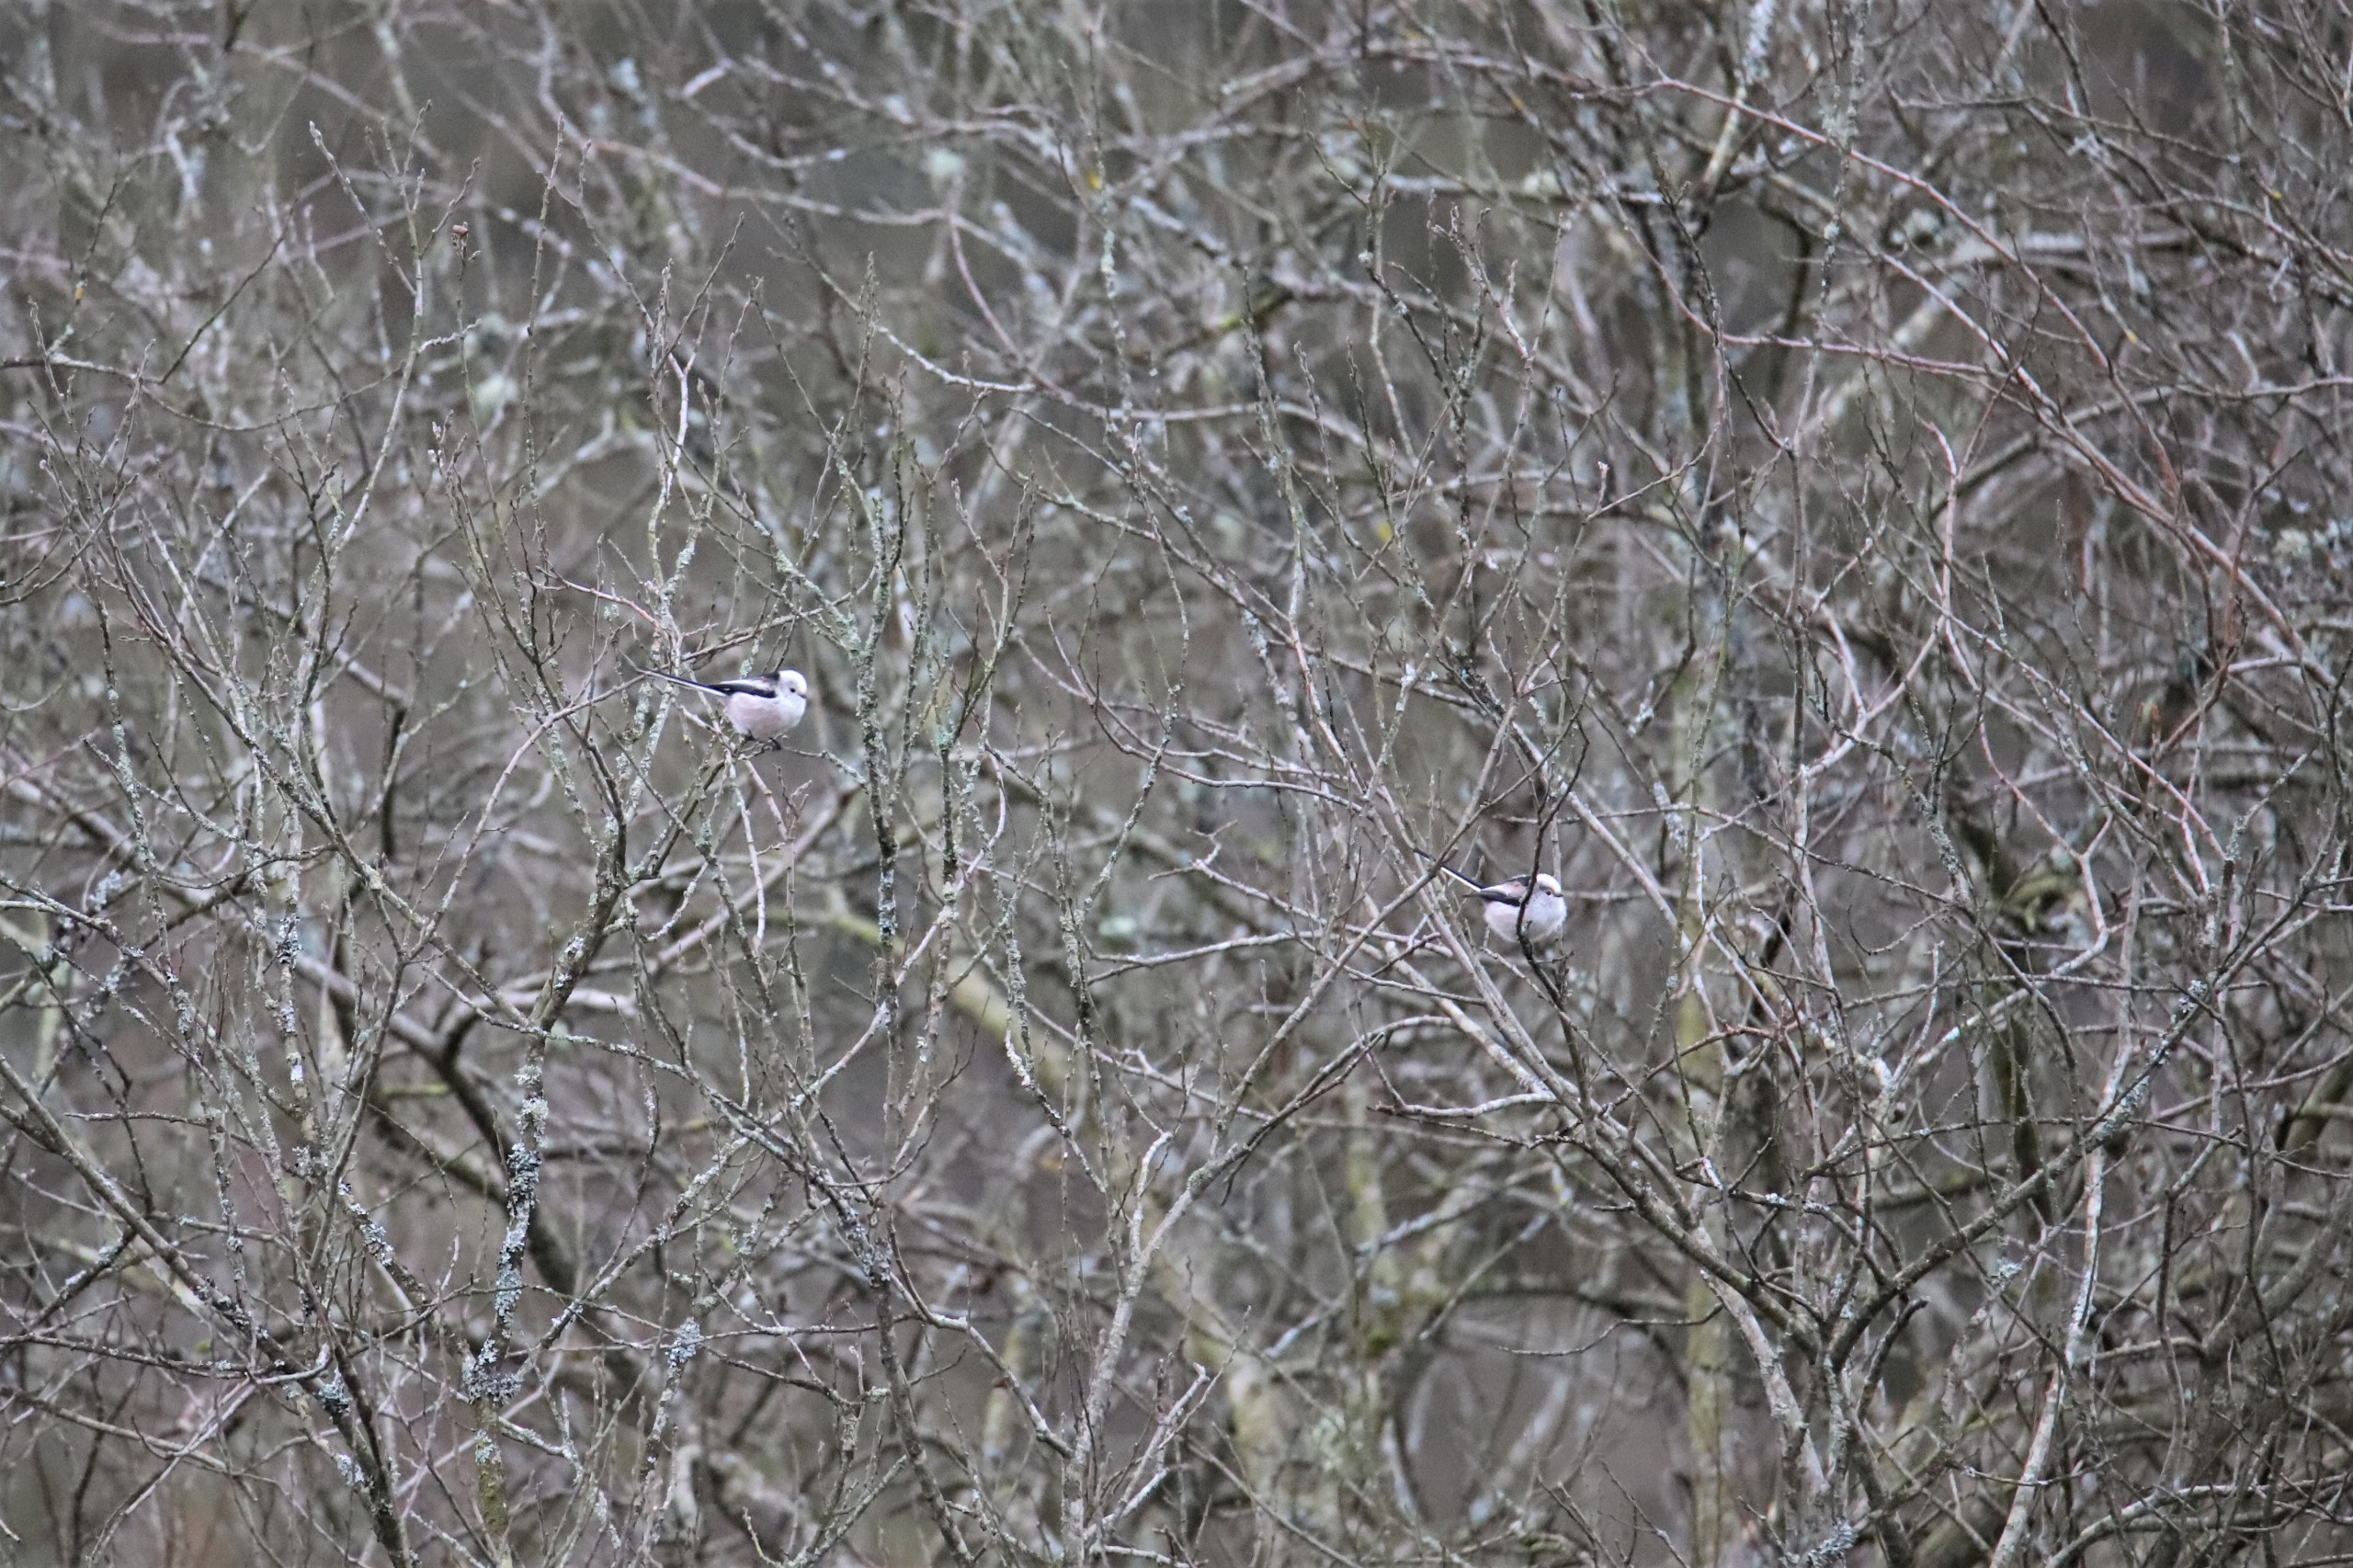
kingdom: Animalia
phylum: Chordata
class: Aves
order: Passeriformes
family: Aegithalidae
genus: Aegithalos
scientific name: Aegithalos caudatus
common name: Halemejse
